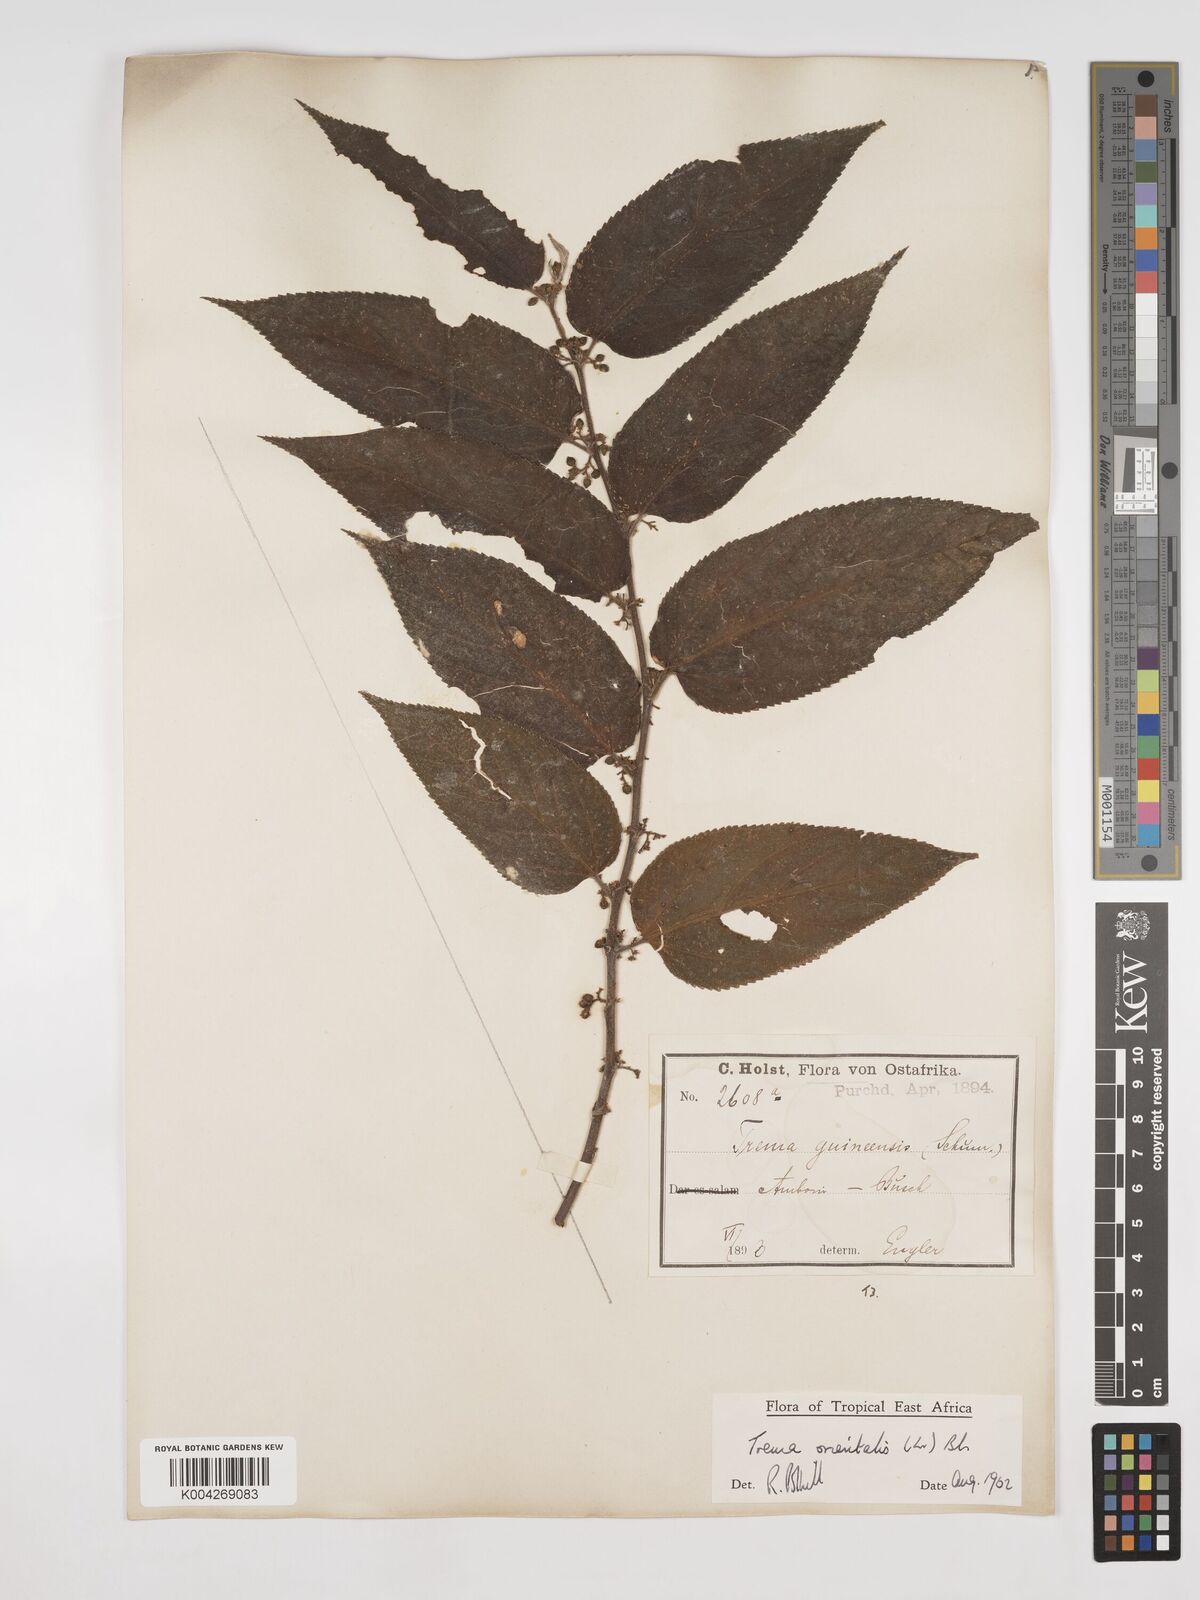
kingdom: Plantae
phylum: Tracheophyta
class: Magnoliopsida
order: Rosales
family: Cannabaceae
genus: Trema
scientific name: Trema orientale
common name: Indian charcoal tree
